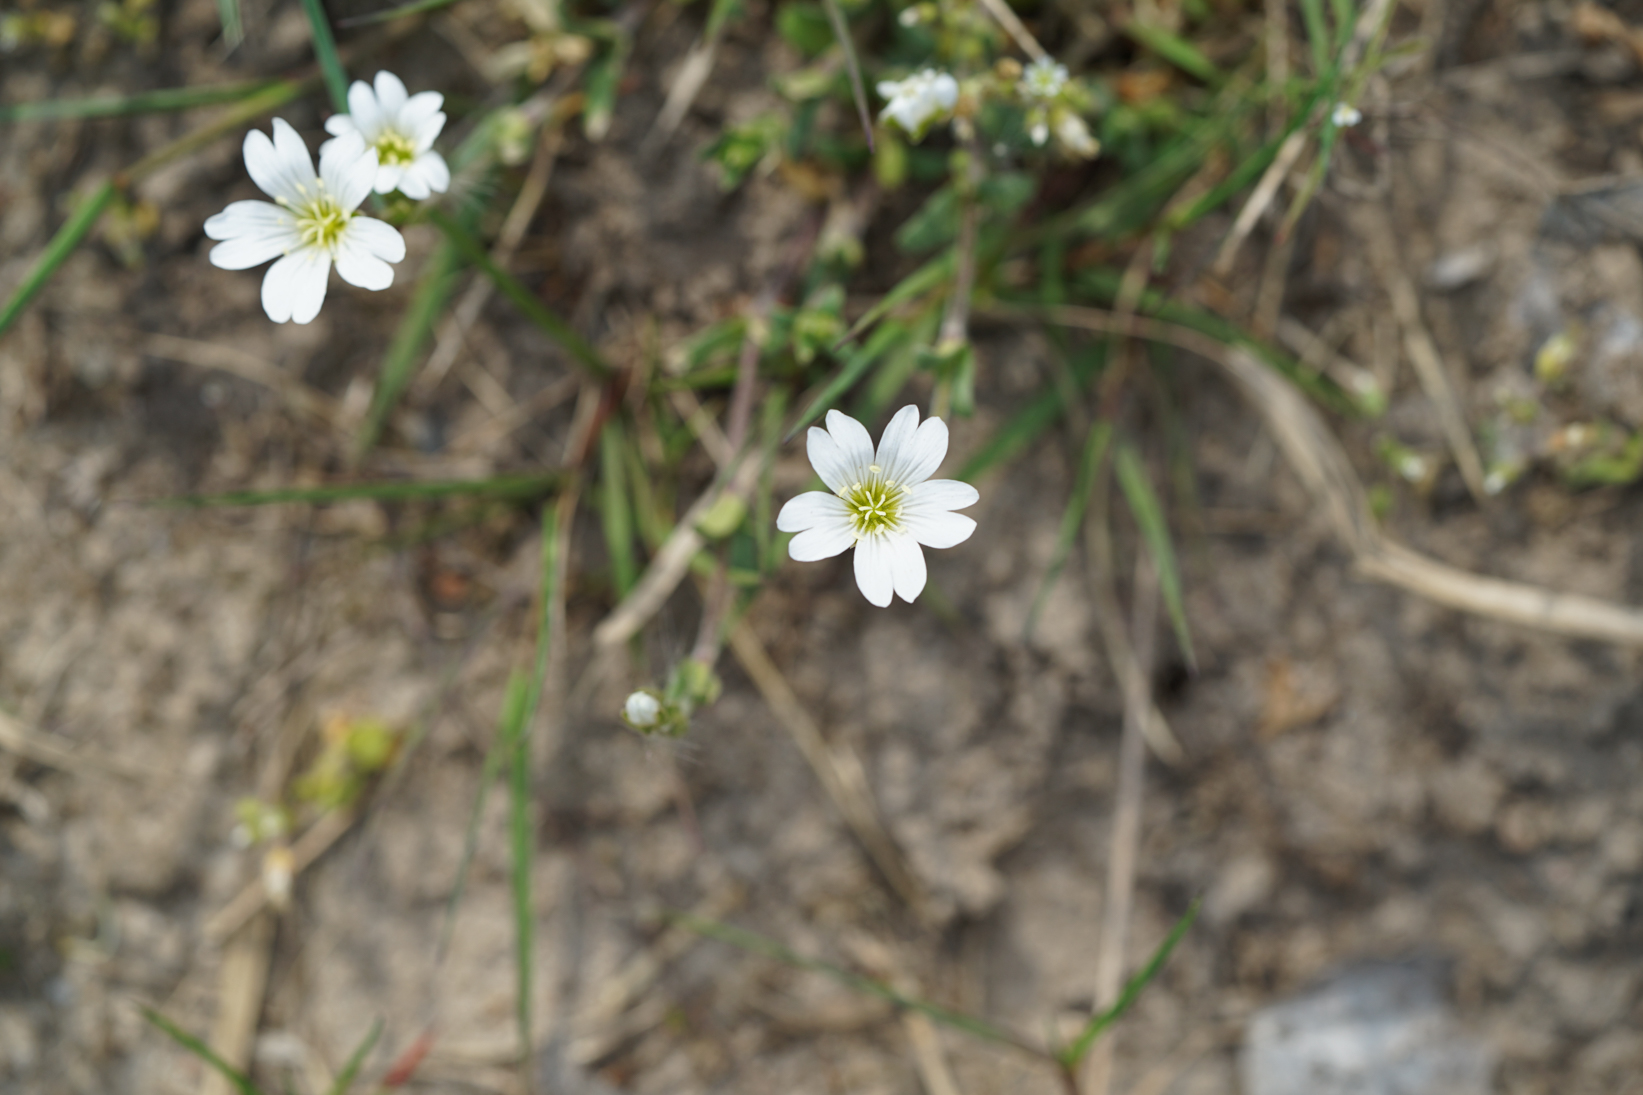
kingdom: Plantae
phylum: Tracheophyta
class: Magnoliopsida
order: Caryophyllales
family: Caryophyllaceae
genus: Cerastium
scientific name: Cerastium holosteoides
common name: Big chickweed
